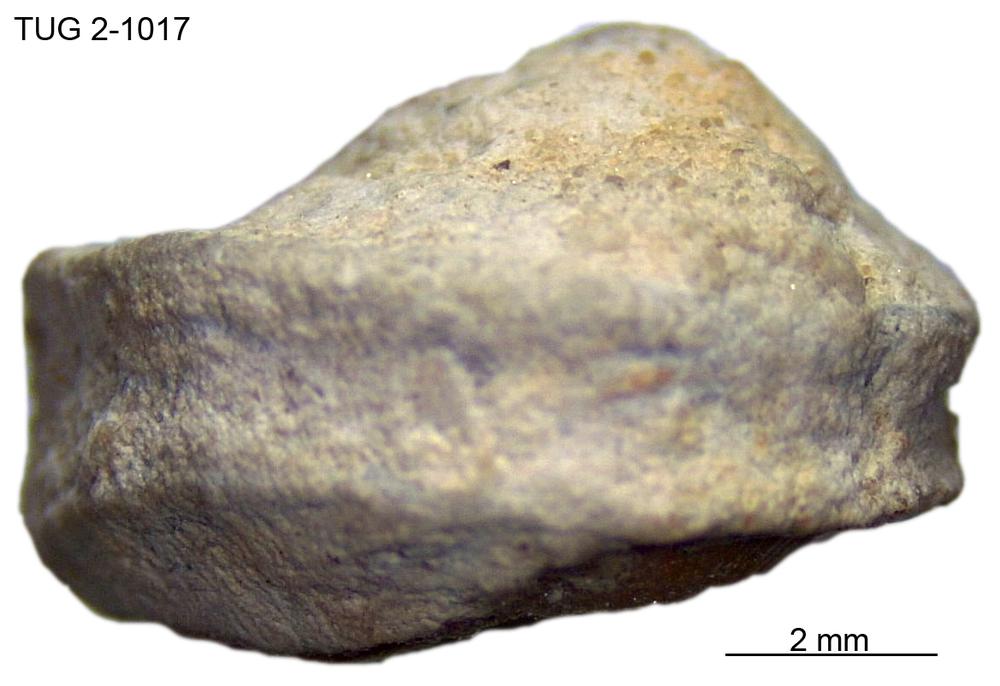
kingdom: Animalia
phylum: Mollusca
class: Gastropoda
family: Trochonematidae
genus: Trochonema
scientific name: Trochonema panderi
